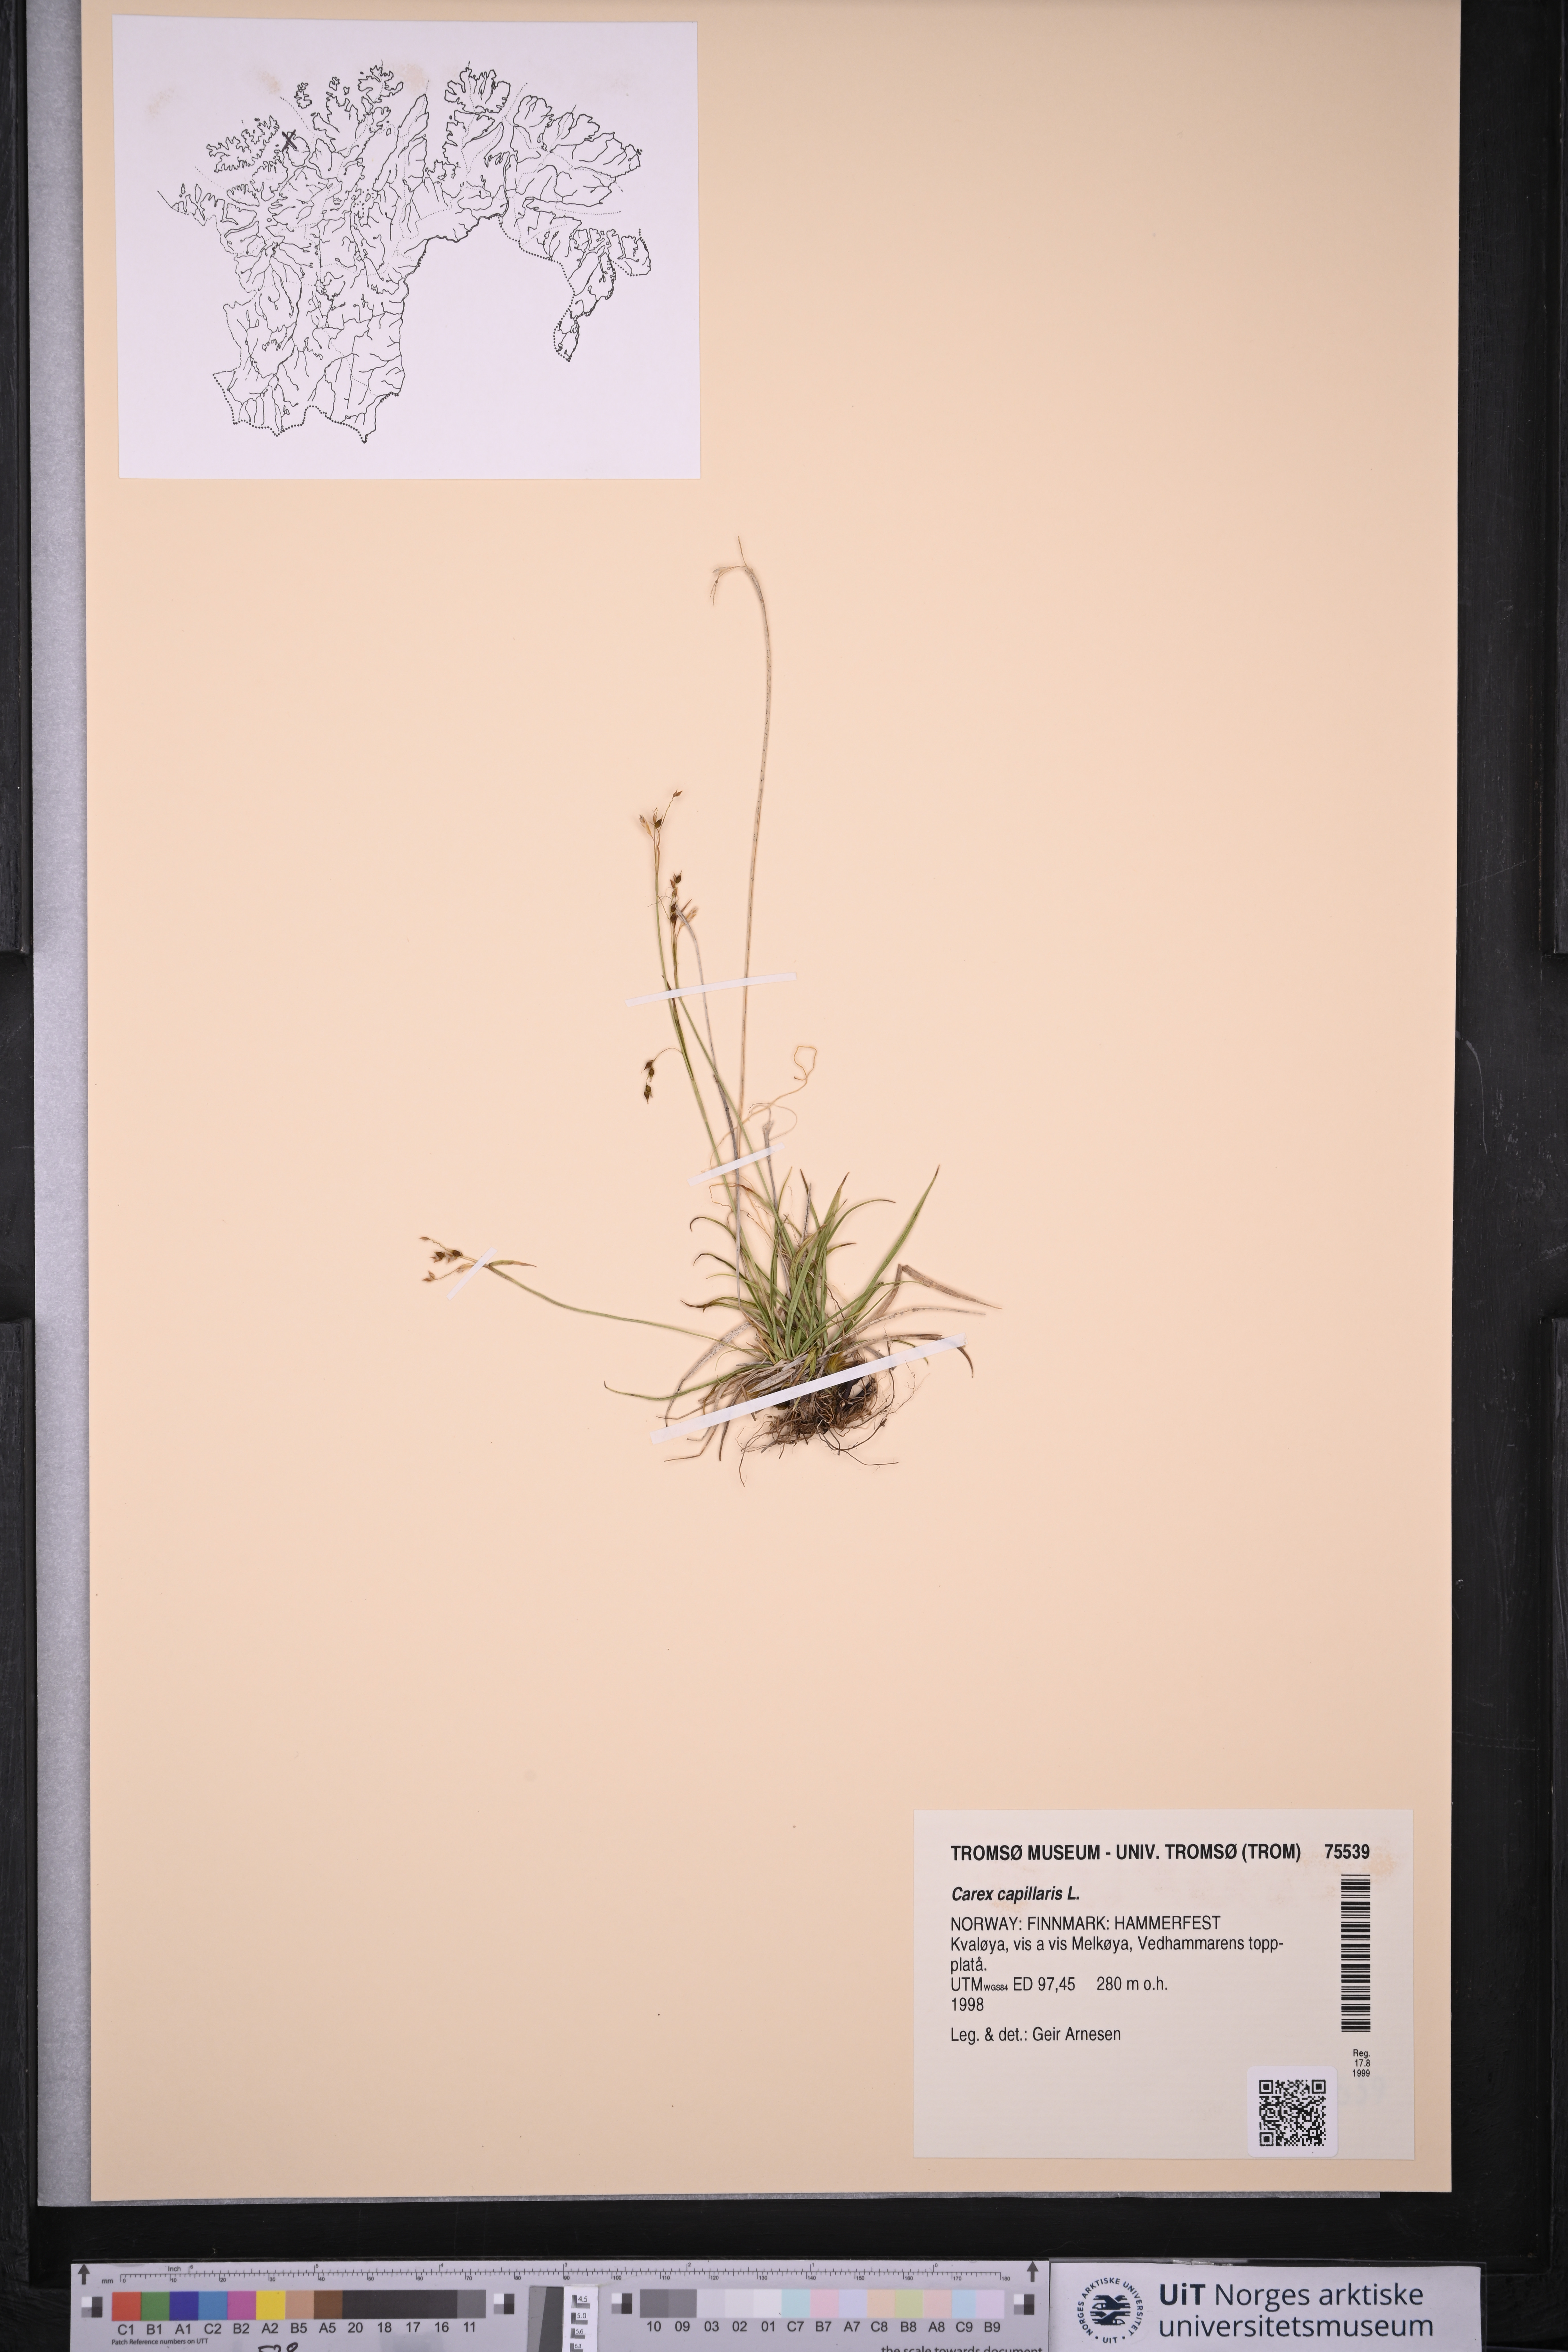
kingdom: Plantae
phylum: Tracheophyta
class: Liliopsida
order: Poales
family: Cyperaceae
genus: Carex
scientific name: Carex capillaris
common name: Hair sedge
